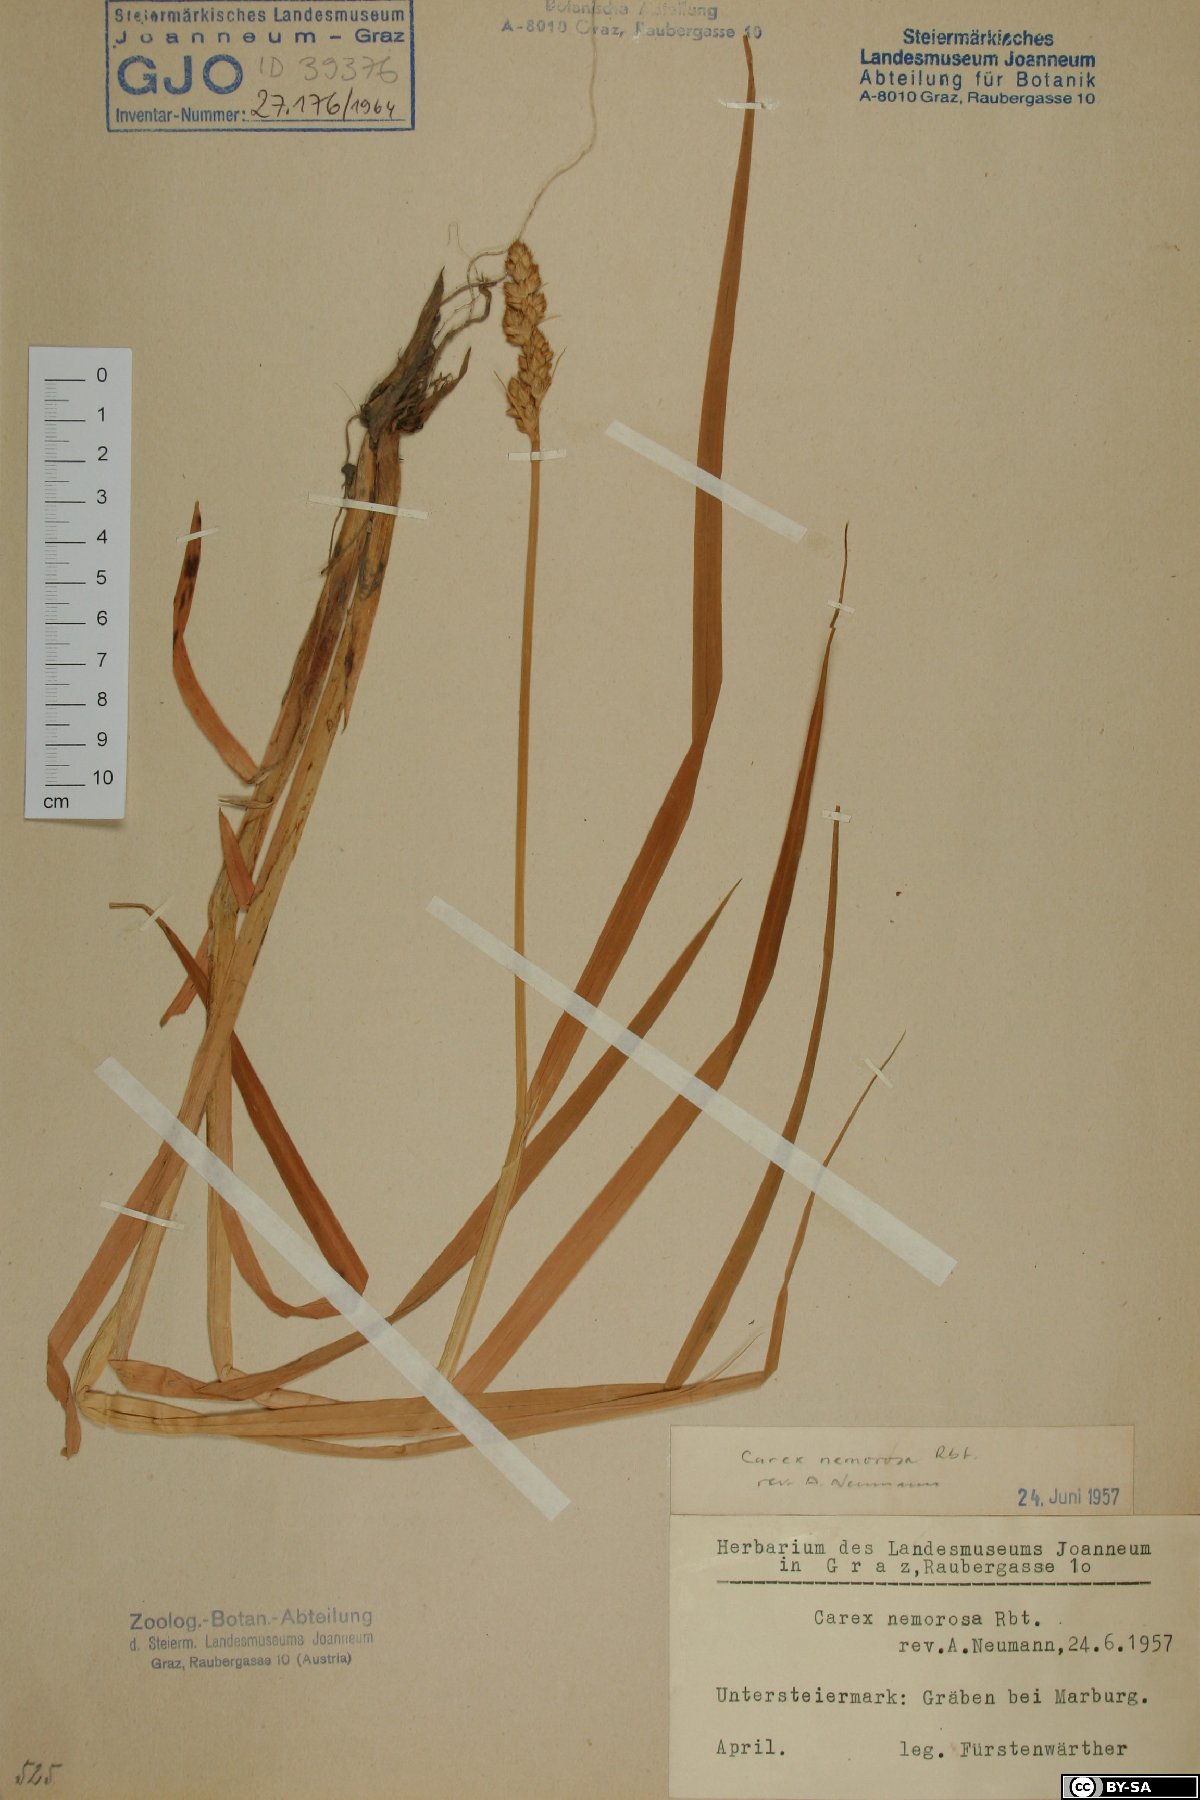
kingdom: Plantae
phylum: Tracheophyta
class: Liliopsida
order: Poales
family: Cyperaceae
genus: Carex
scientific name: Carex otrubae
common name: False fox-sedge
